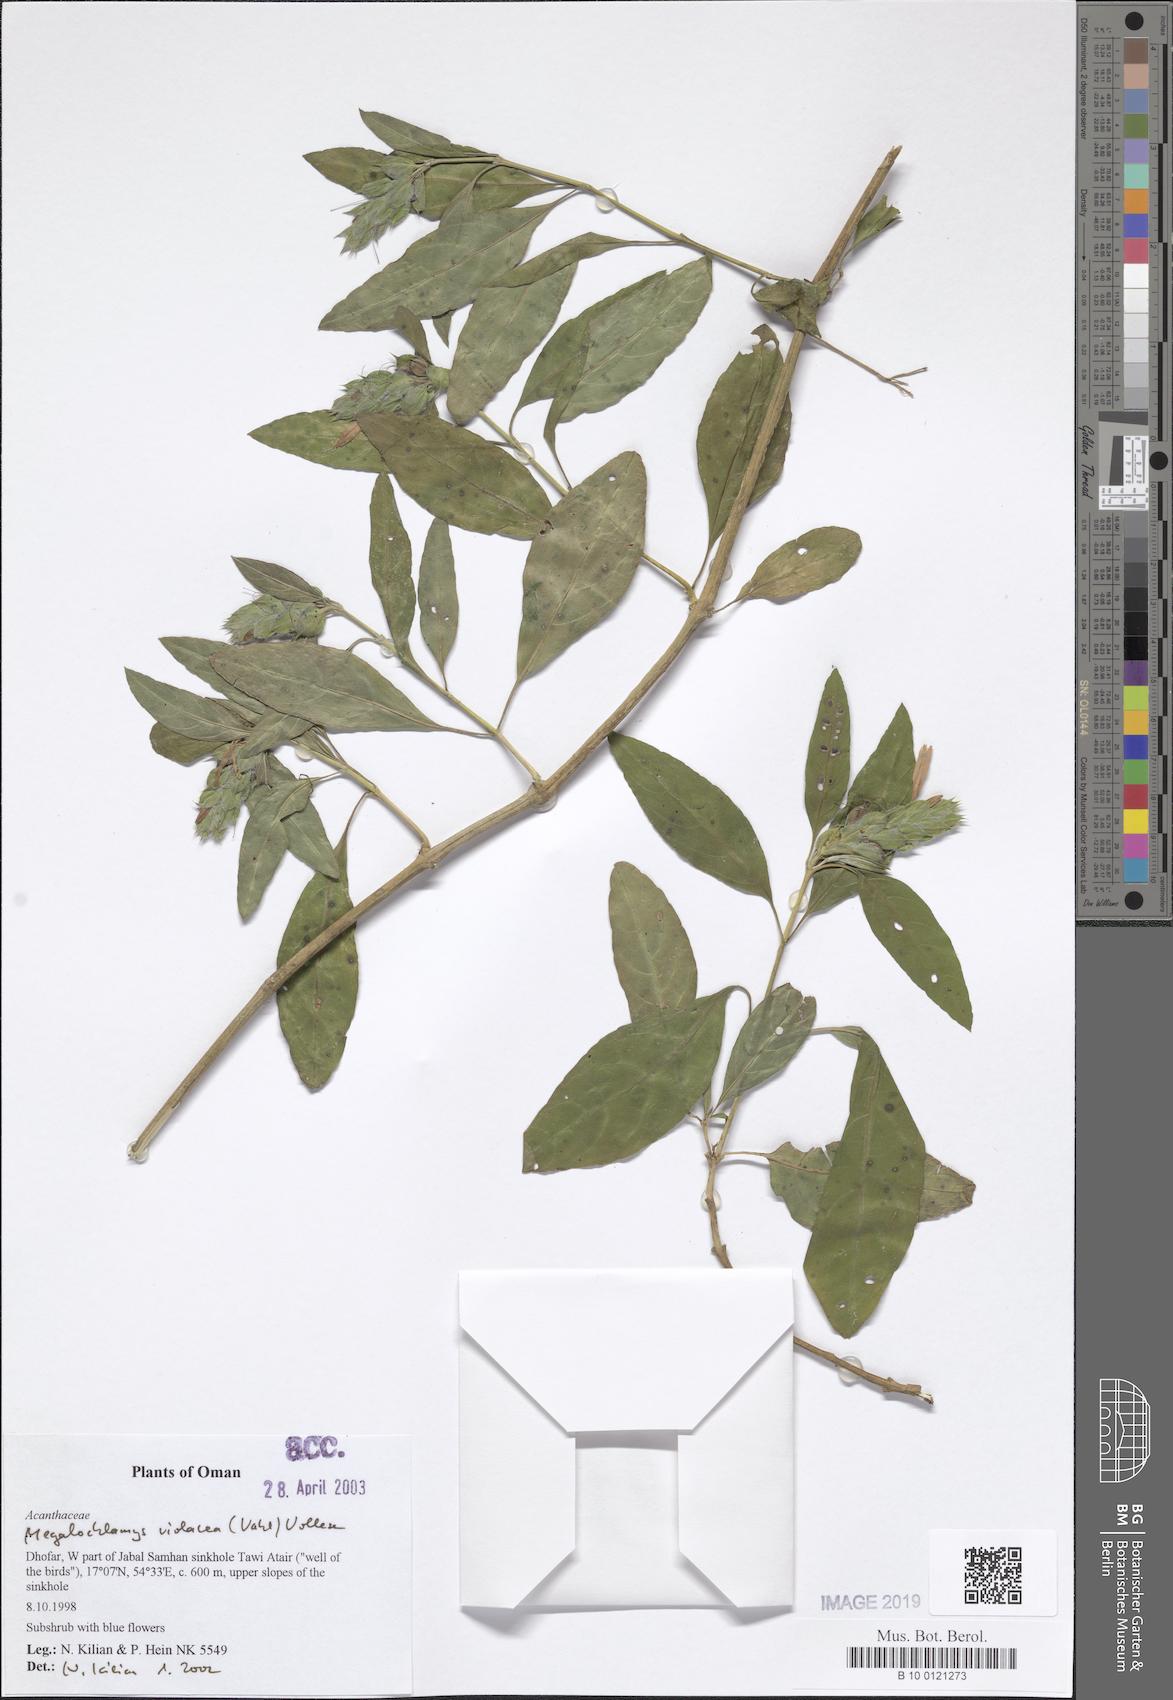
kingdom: Plantae
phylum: Tracheophyta
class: Magnoliopsida
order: Lamiales
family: Acanthaceae
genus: Megalochlamys
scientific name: Megalochlamys violacea
